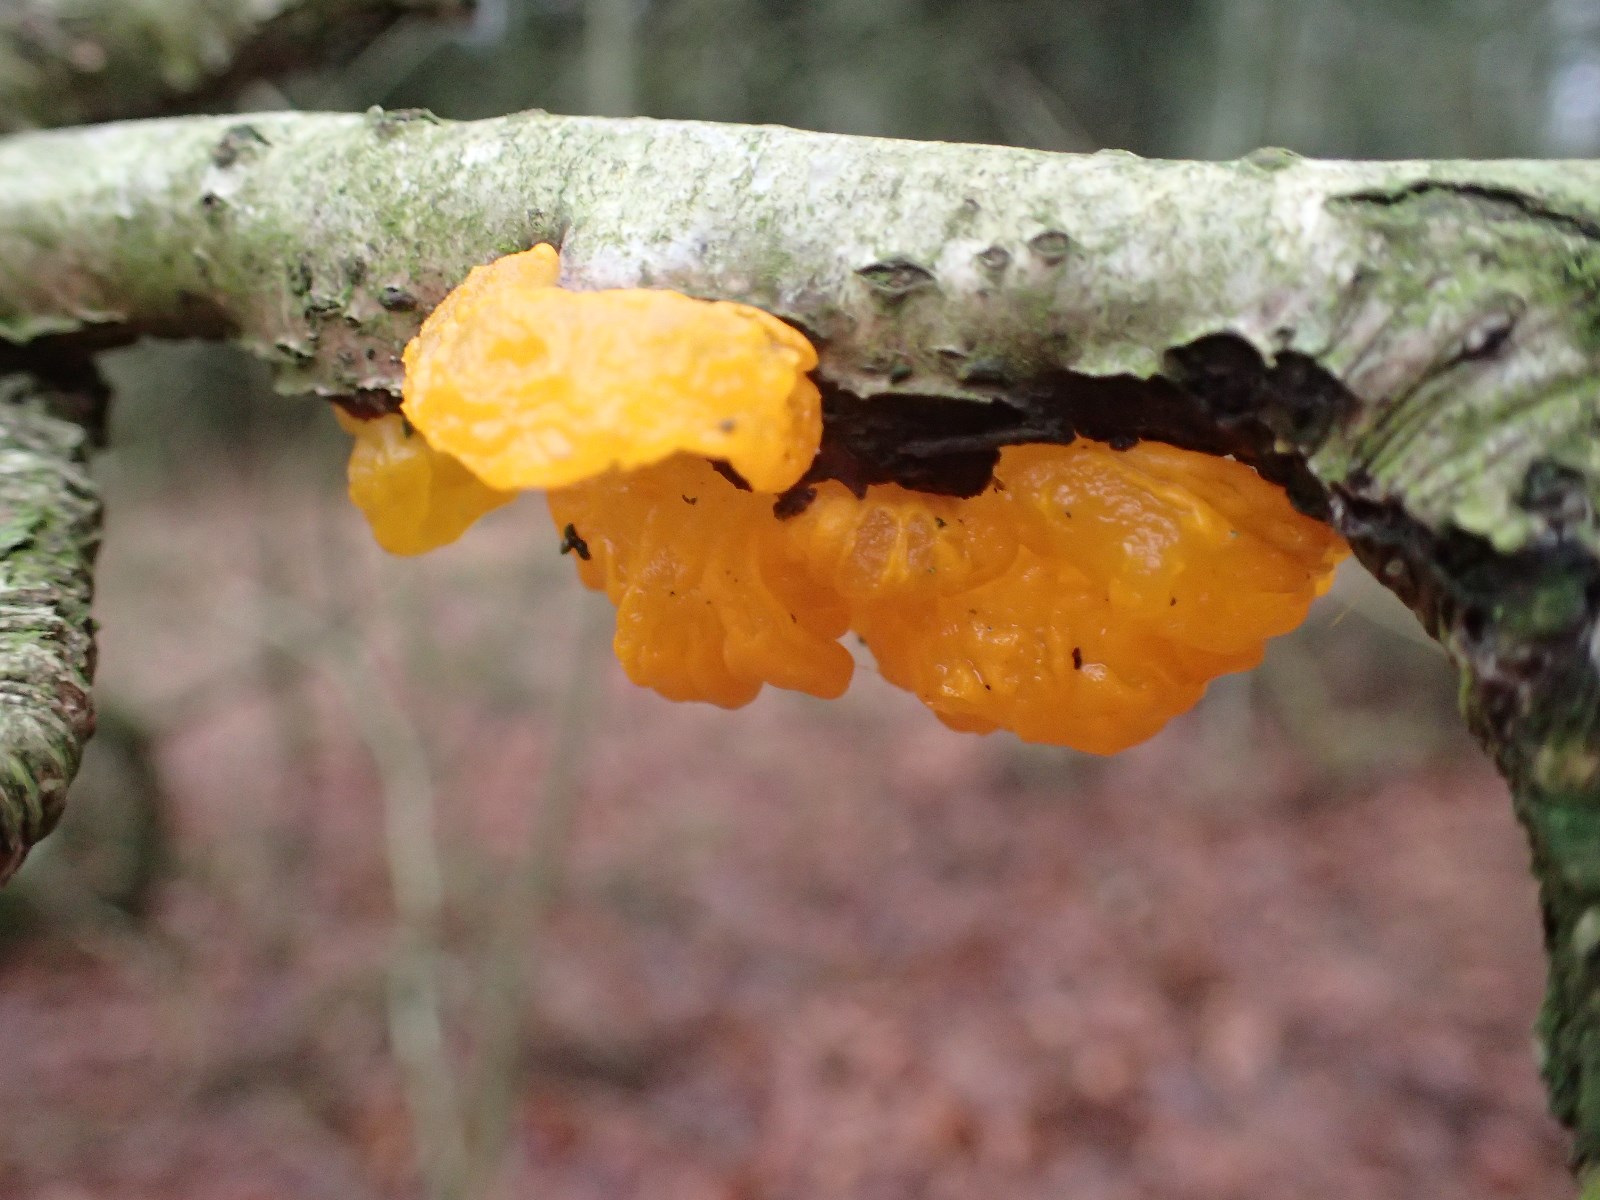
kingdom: Fungi
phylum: Basidiomycota
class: Tremellomycetes
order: Tremellales
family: Tremellaceae
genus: Tremella
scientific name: Tremella mesenterica
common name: gul bævresvamp
